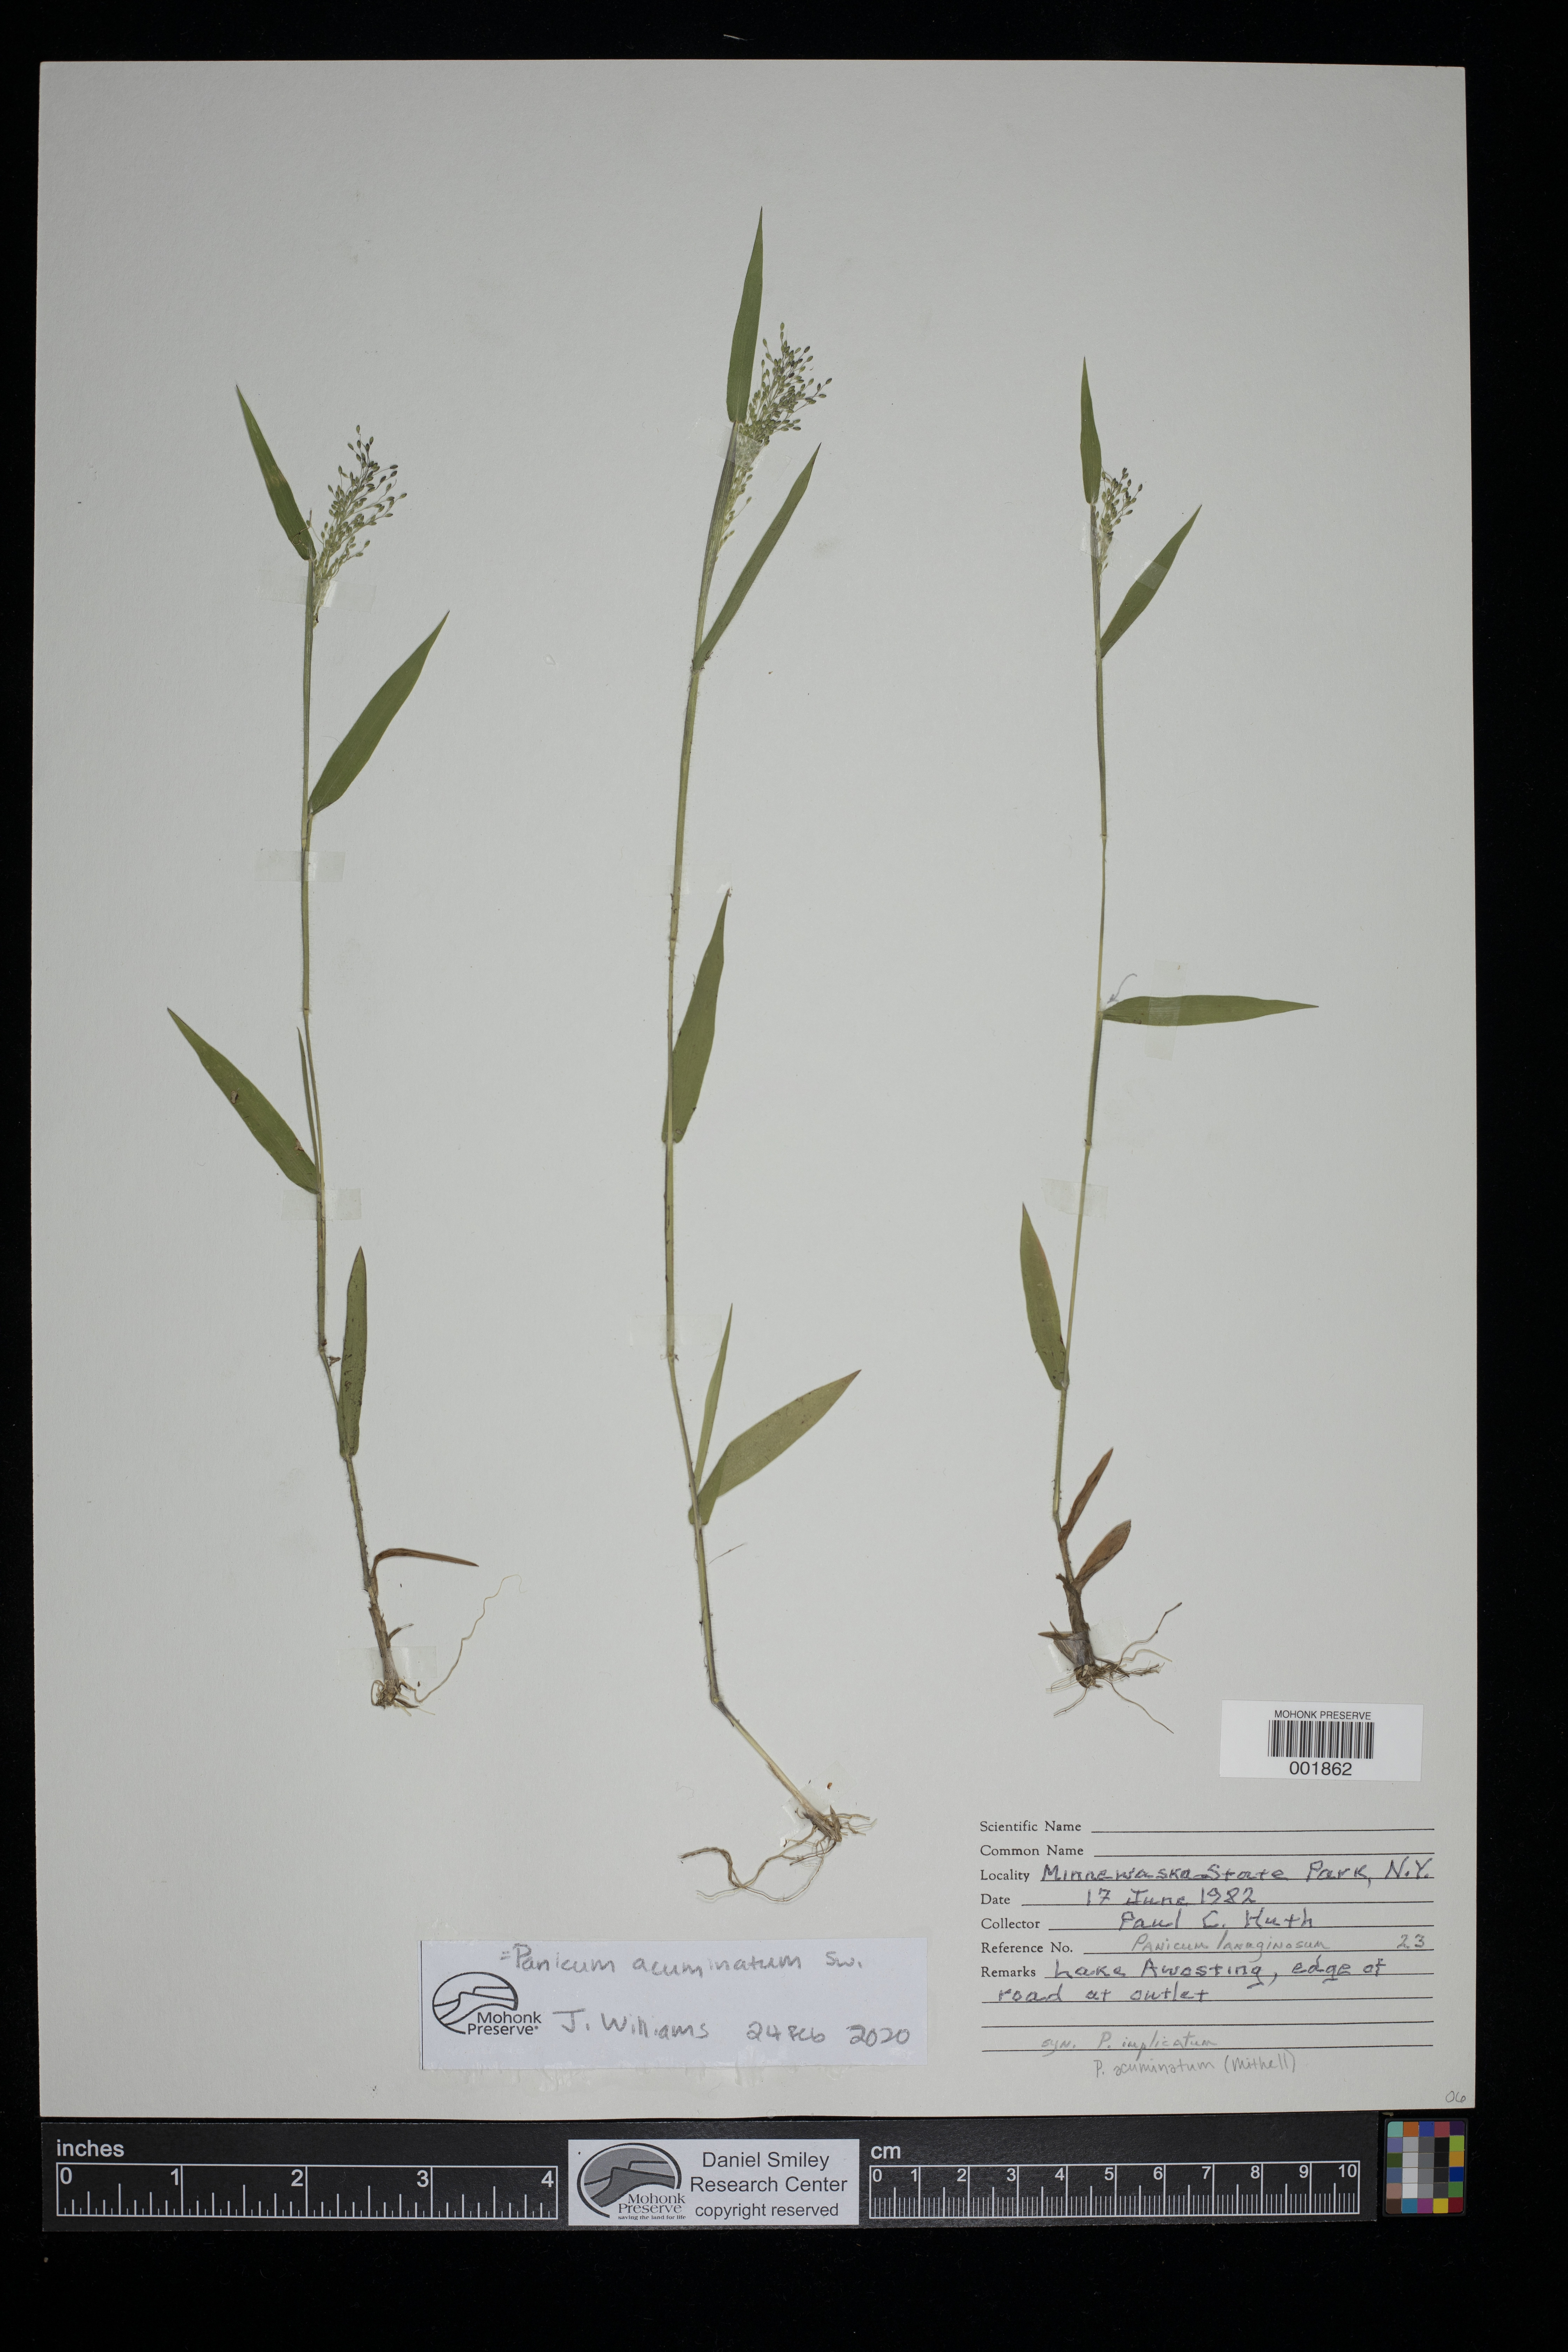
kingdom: Plantae
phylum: Tracheophyta
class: Liliopsida
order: Poales
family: Poaceae
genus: Dichanthelium
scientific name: Dichanthelium acuminatum
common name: Hairy panic grass
